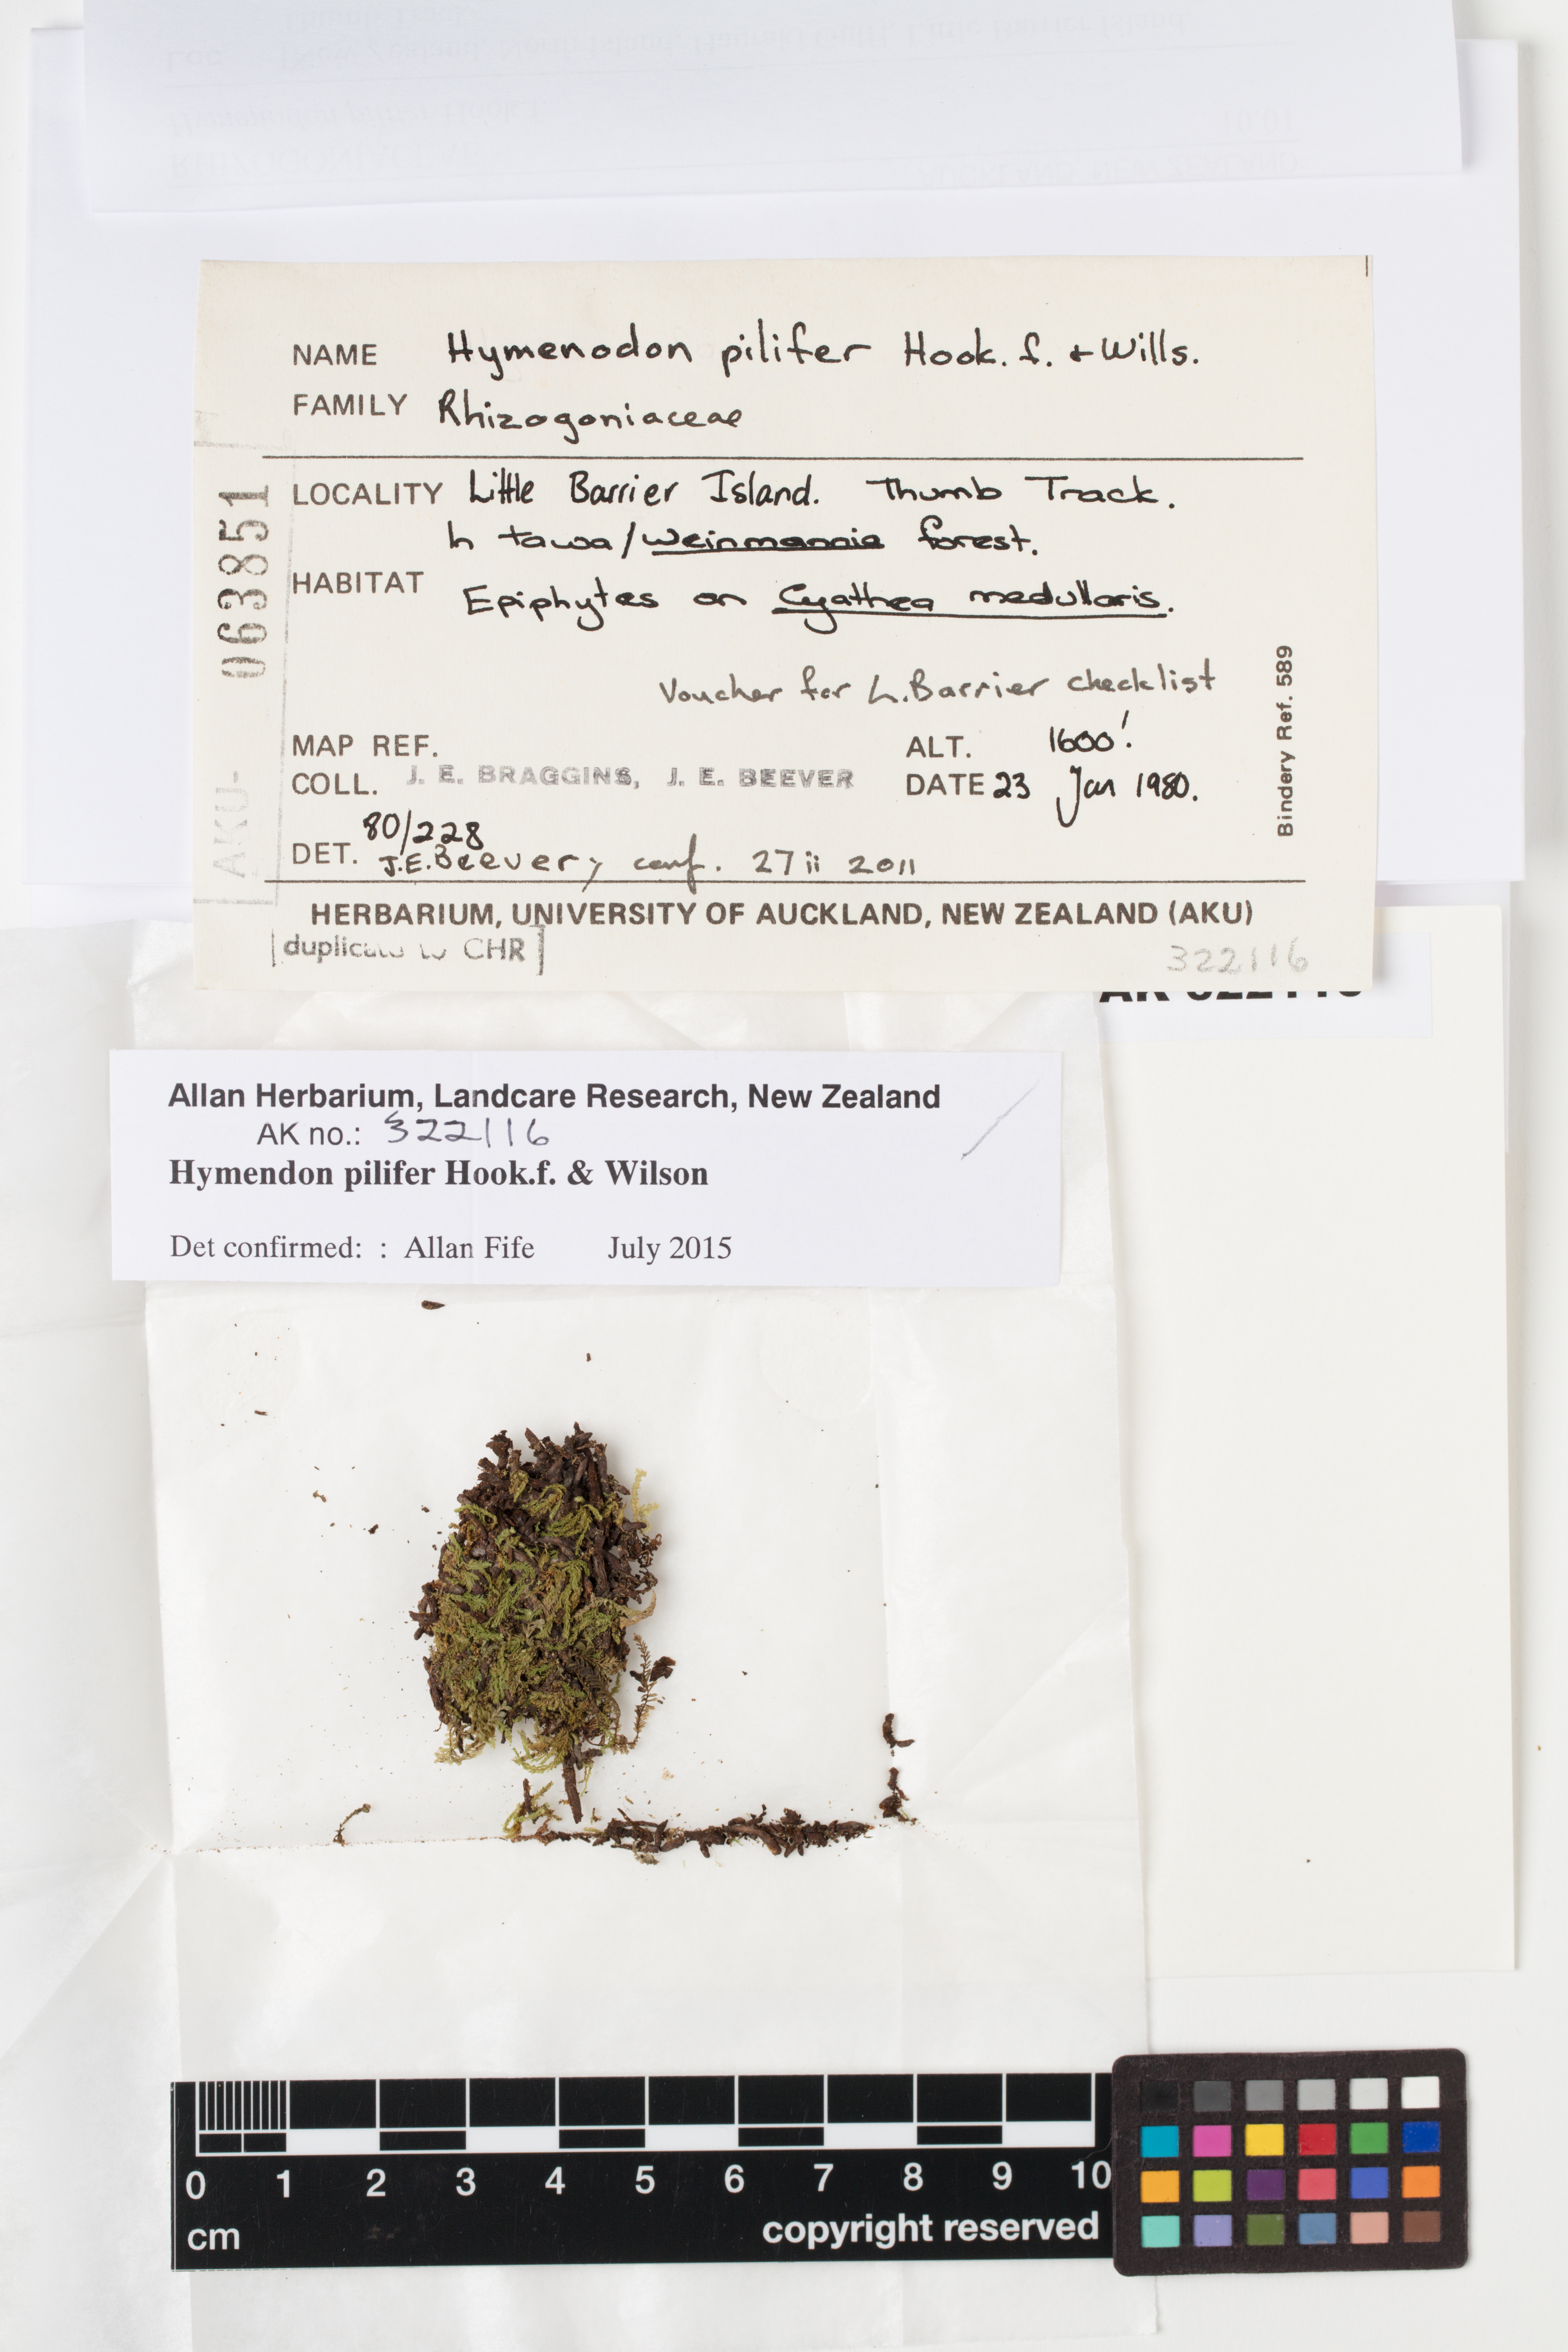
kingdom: Plantae
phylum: Bryophyta
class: Bryopsida
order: Orthodontiales
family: Orthodontiaceae
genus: Hymenodon
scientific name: Hymenodon pilifer
